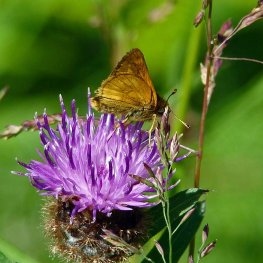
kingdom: Animalia
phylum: Arthropoda
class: Insecta
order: Lepidoptera
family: Hesperiidae
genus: Polites
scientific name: Polites
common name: Long Dash Skipper
